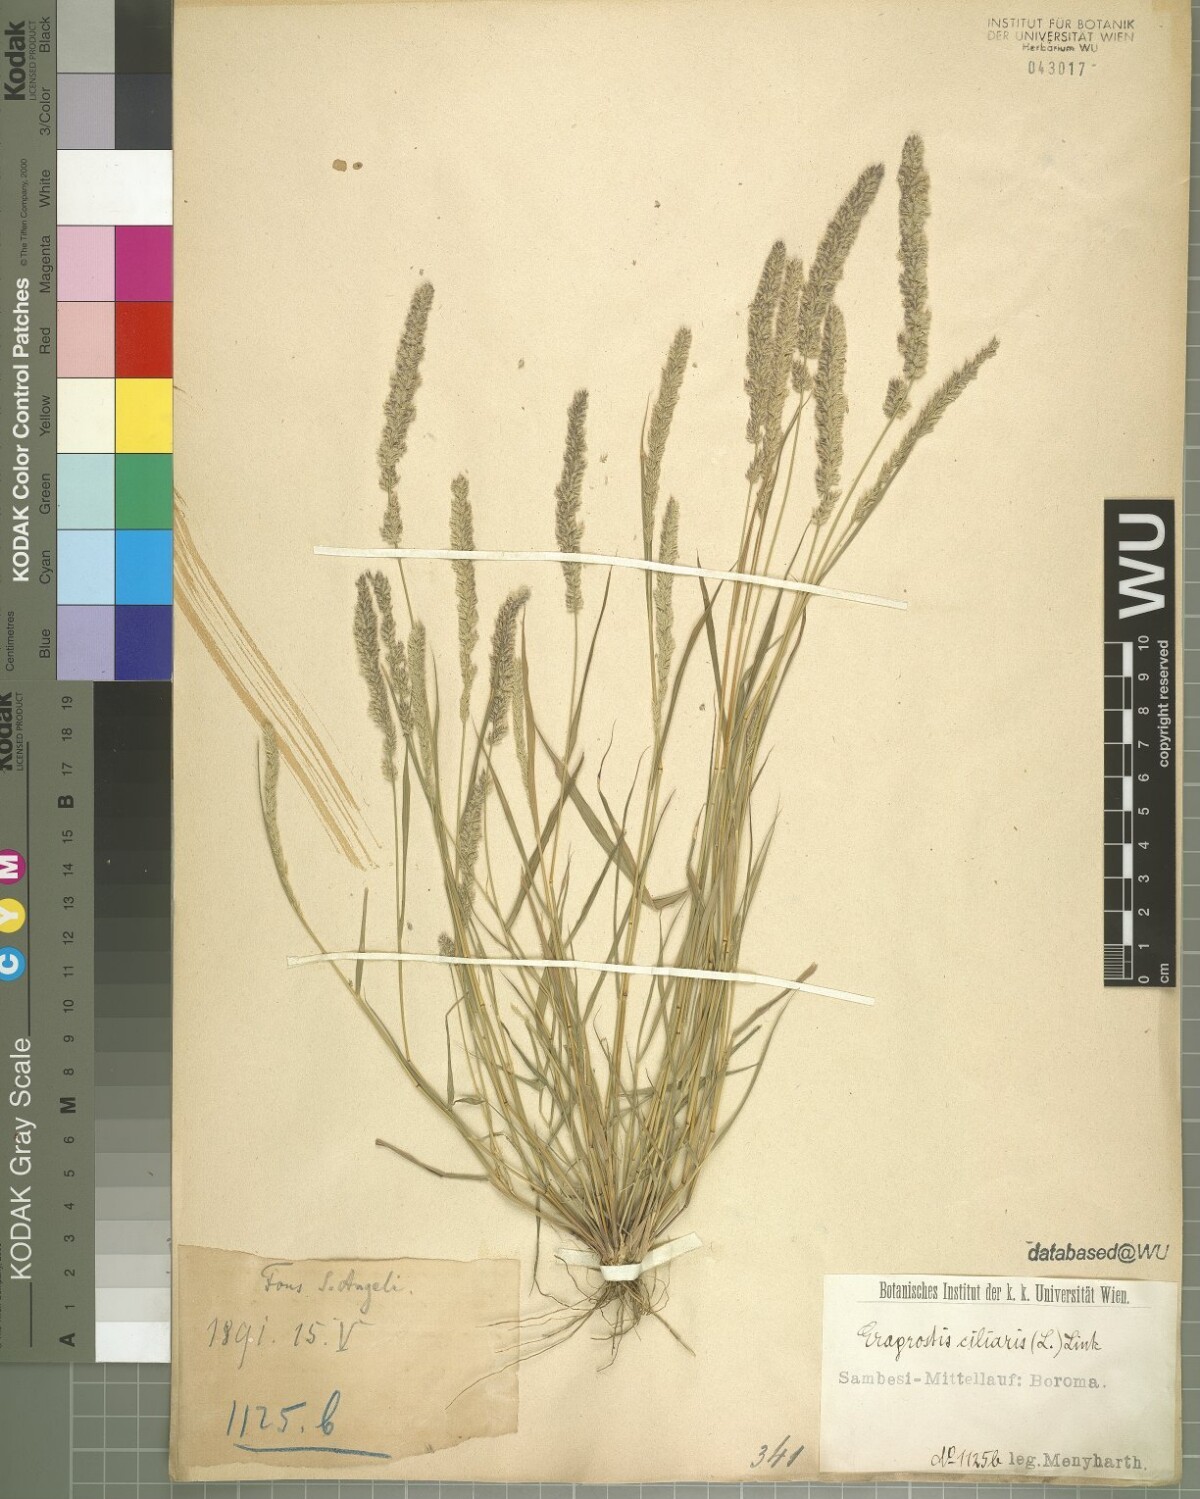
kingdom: Plantae
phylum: Tracheophyta
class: Liliopsida
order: Poales
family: Poaceae
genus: Eragrostis
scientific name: Eragrostis ciliaris
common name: Gophertail lovegrass
